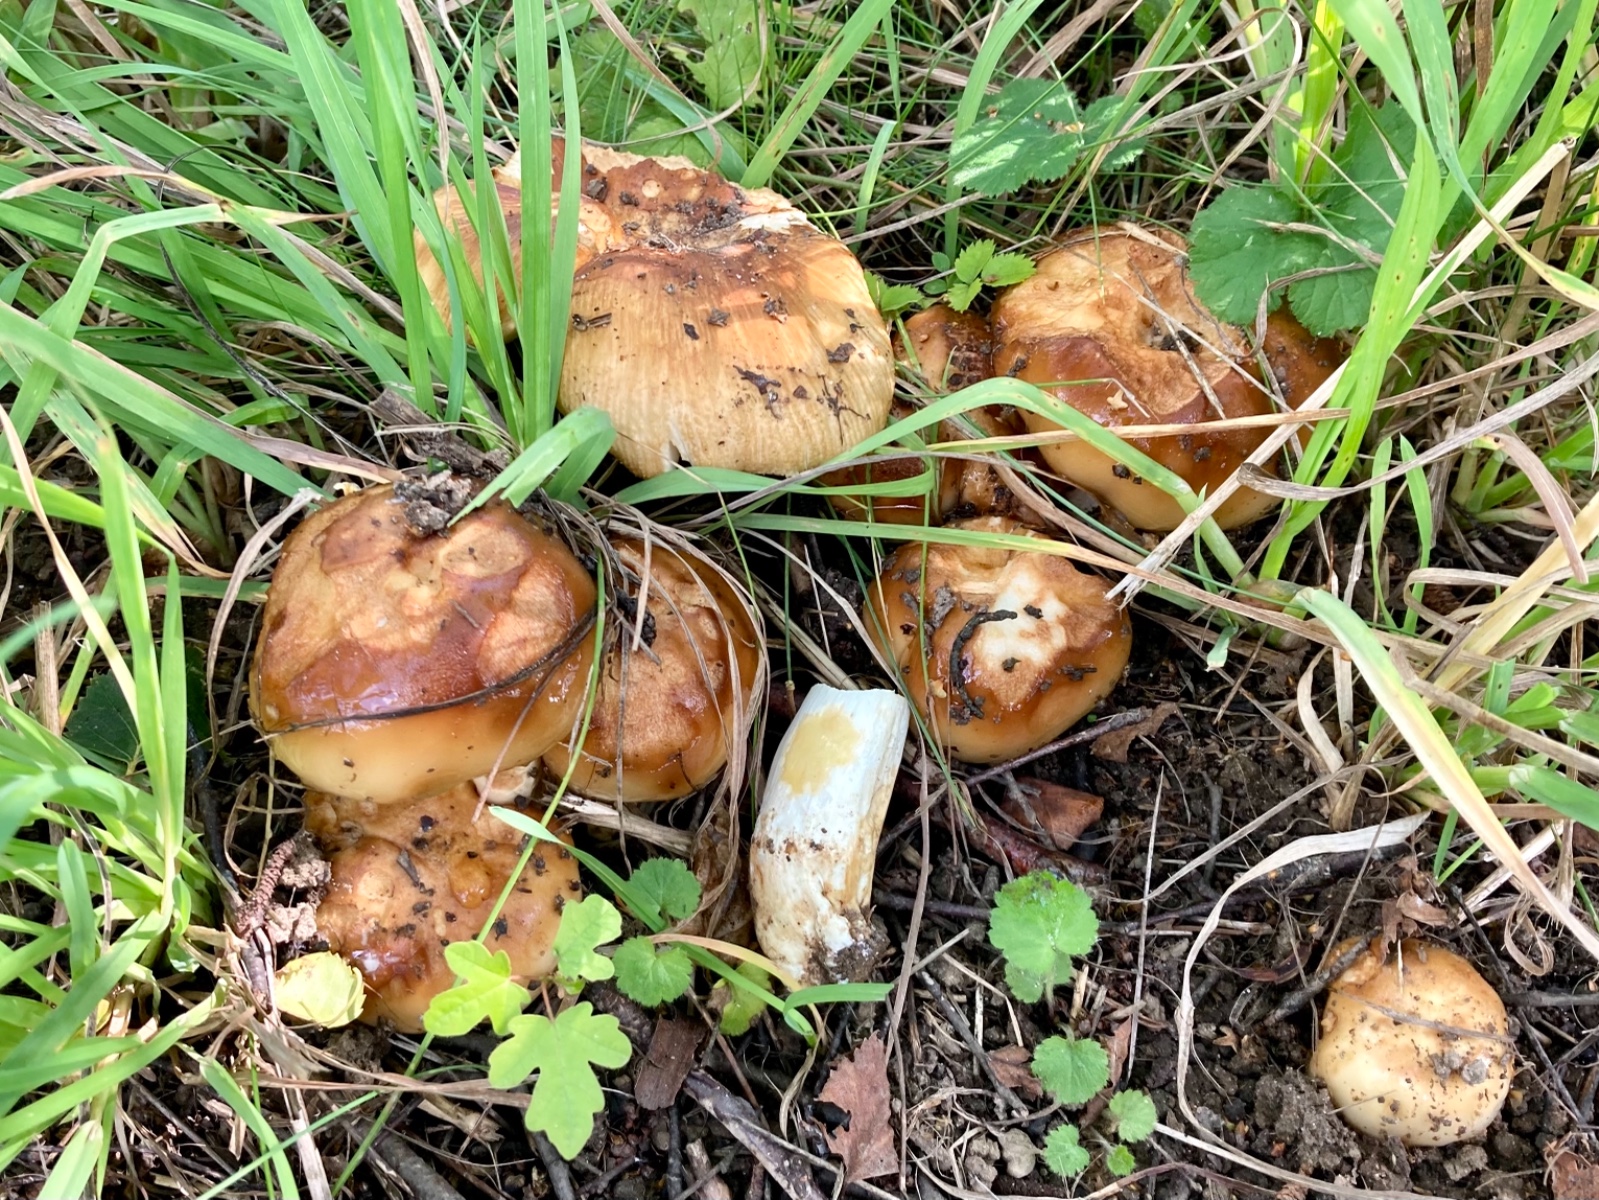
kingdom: Fungi
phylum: Basidiomycota
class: Agaricomycetes
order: Russulales
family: Russulaceae
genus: Russula
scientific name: Russula
